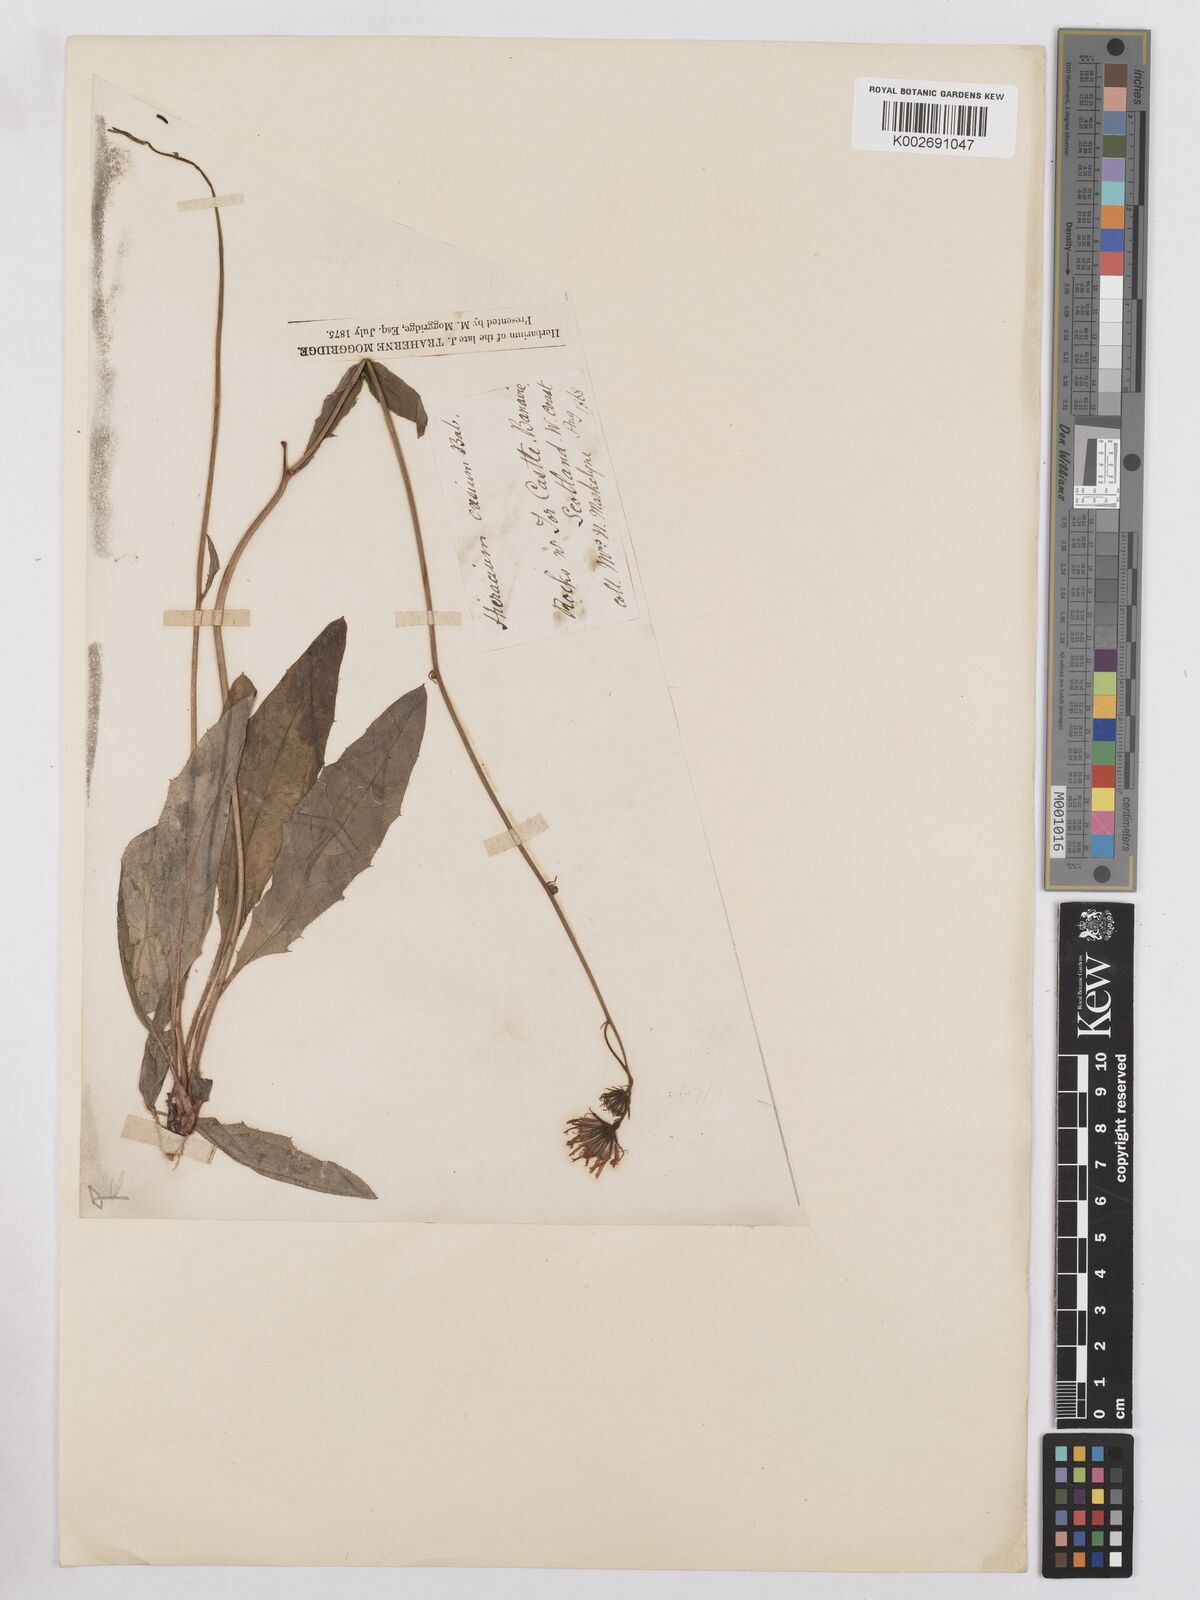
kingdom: Plantae
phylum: Tracheophyta
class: Magnoliopsida
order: Asterales
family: Asteraceae
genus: Hieracium
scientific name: Hieracium farrense
